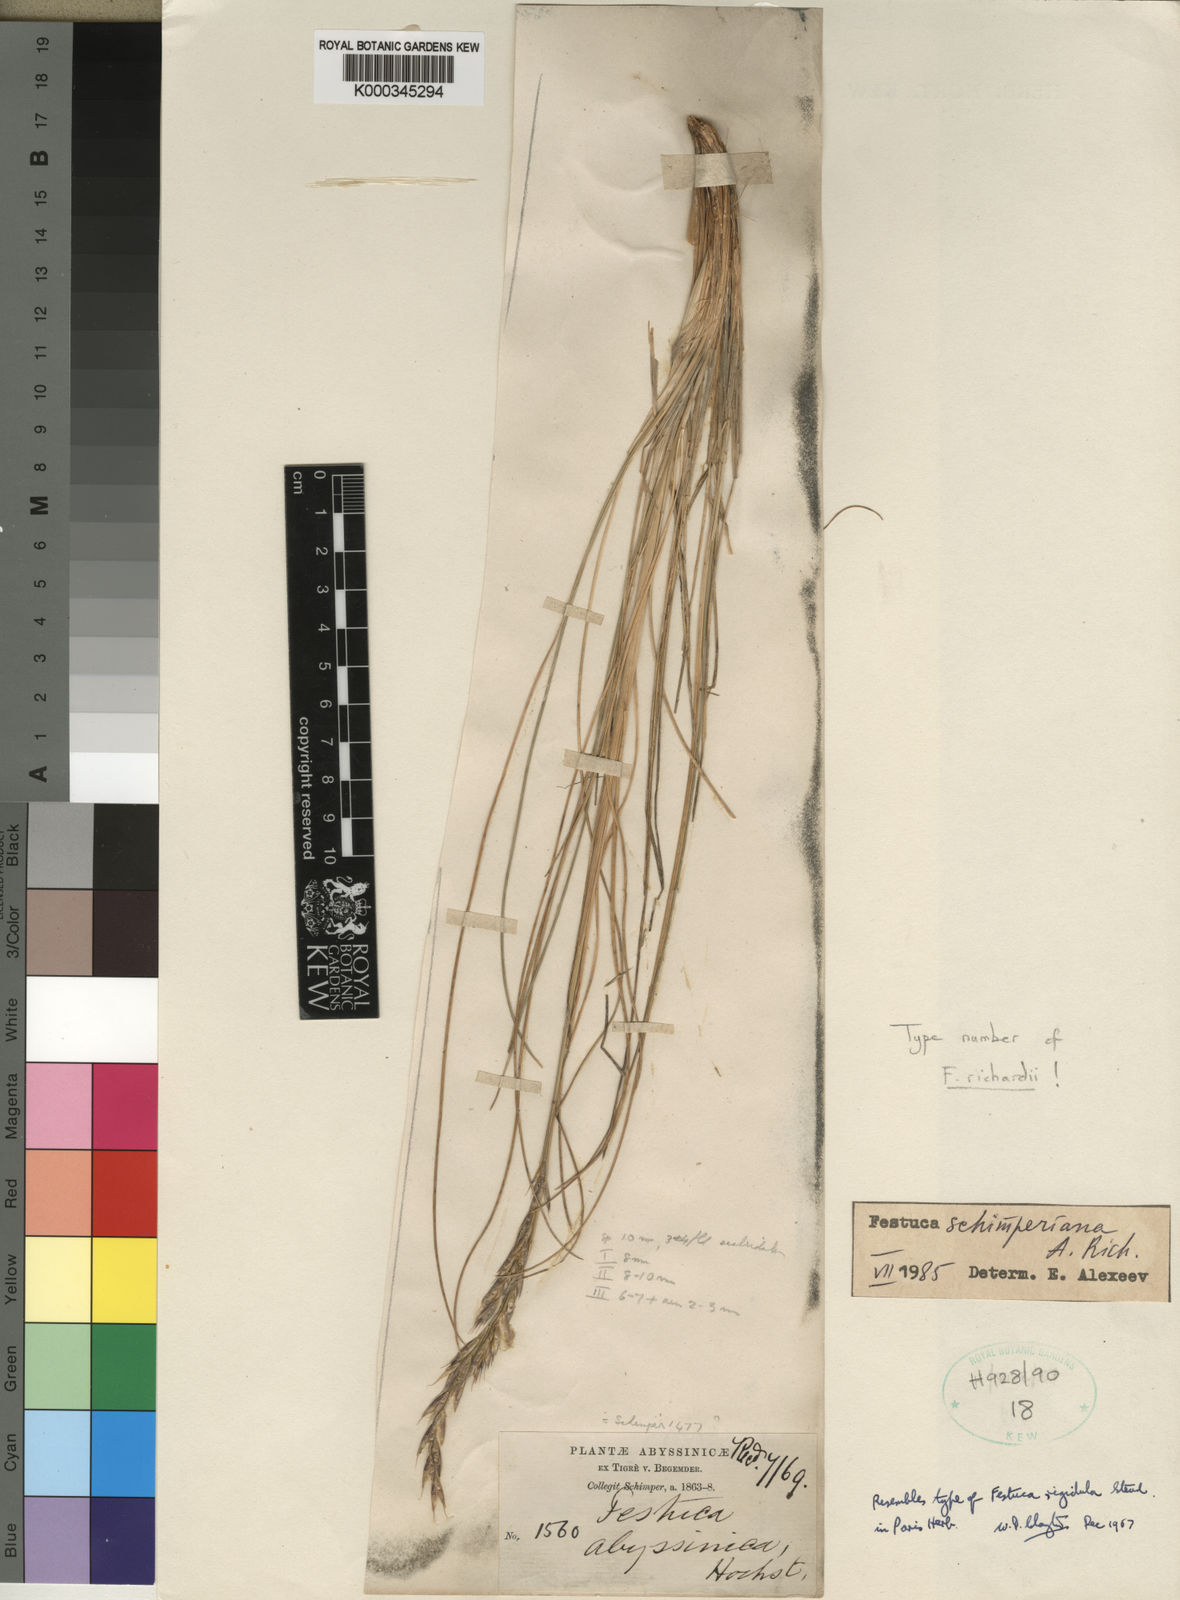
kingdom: Plantae
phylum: Tracheophyta
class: Liliopsida
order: Poales
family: Poaceae
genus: Festuca
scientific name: Festuca richardii
